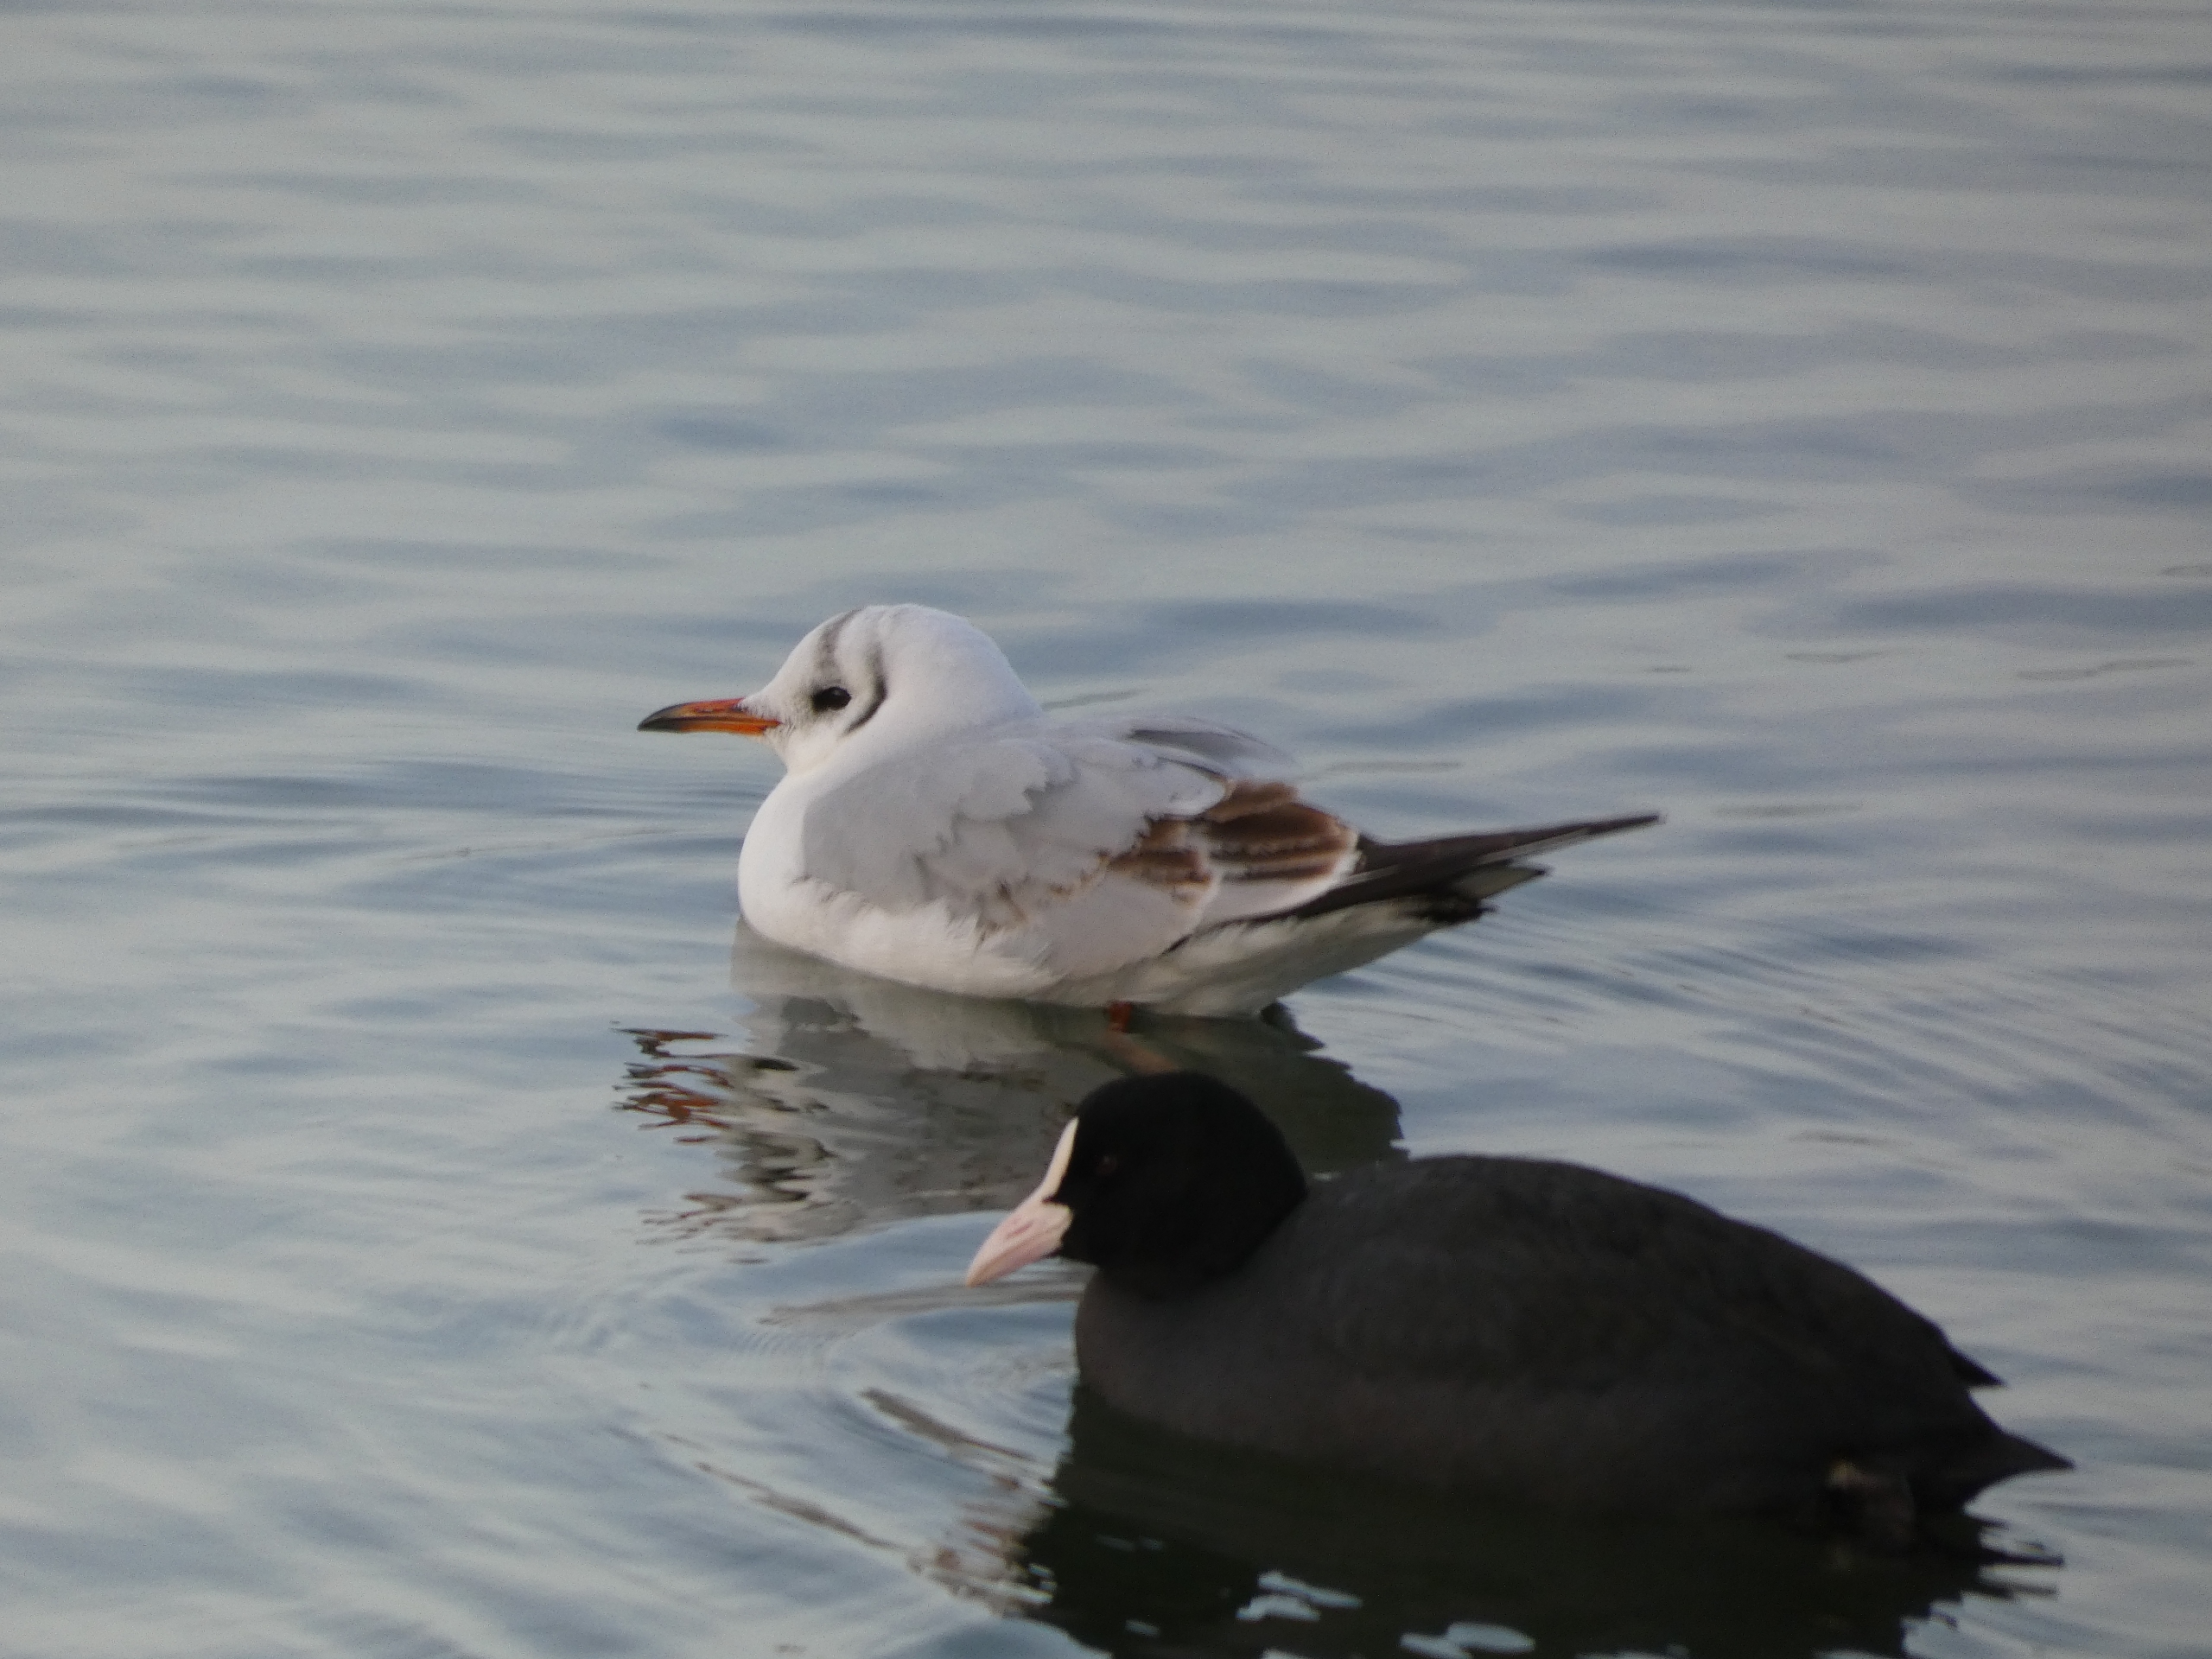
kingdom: Animalia
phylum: Chordata
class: Aves
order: Charadriiformes
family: Laridae
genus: Chroicocephalus
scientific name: Chroicocephalus ridibundus
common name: Hættemåge
